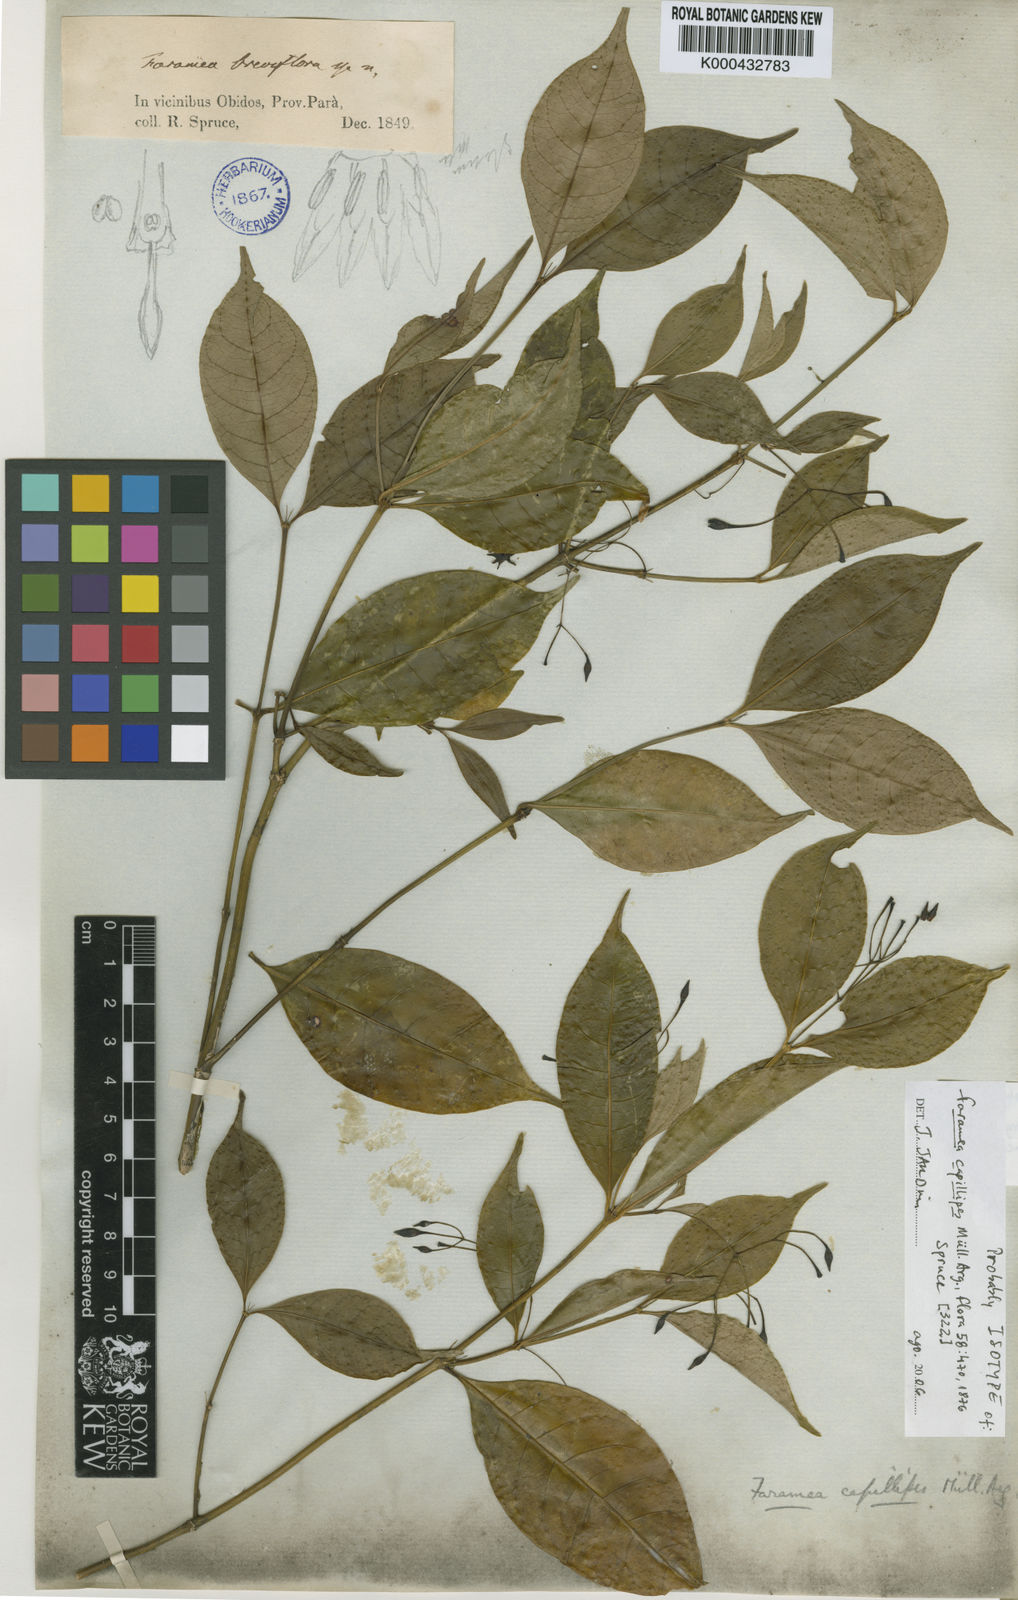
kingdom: Plantae
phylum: Tracheophyta
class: Magnoliopsida
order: Gentianales
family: Rubiaceae
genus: Faramea
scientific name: Faramea
